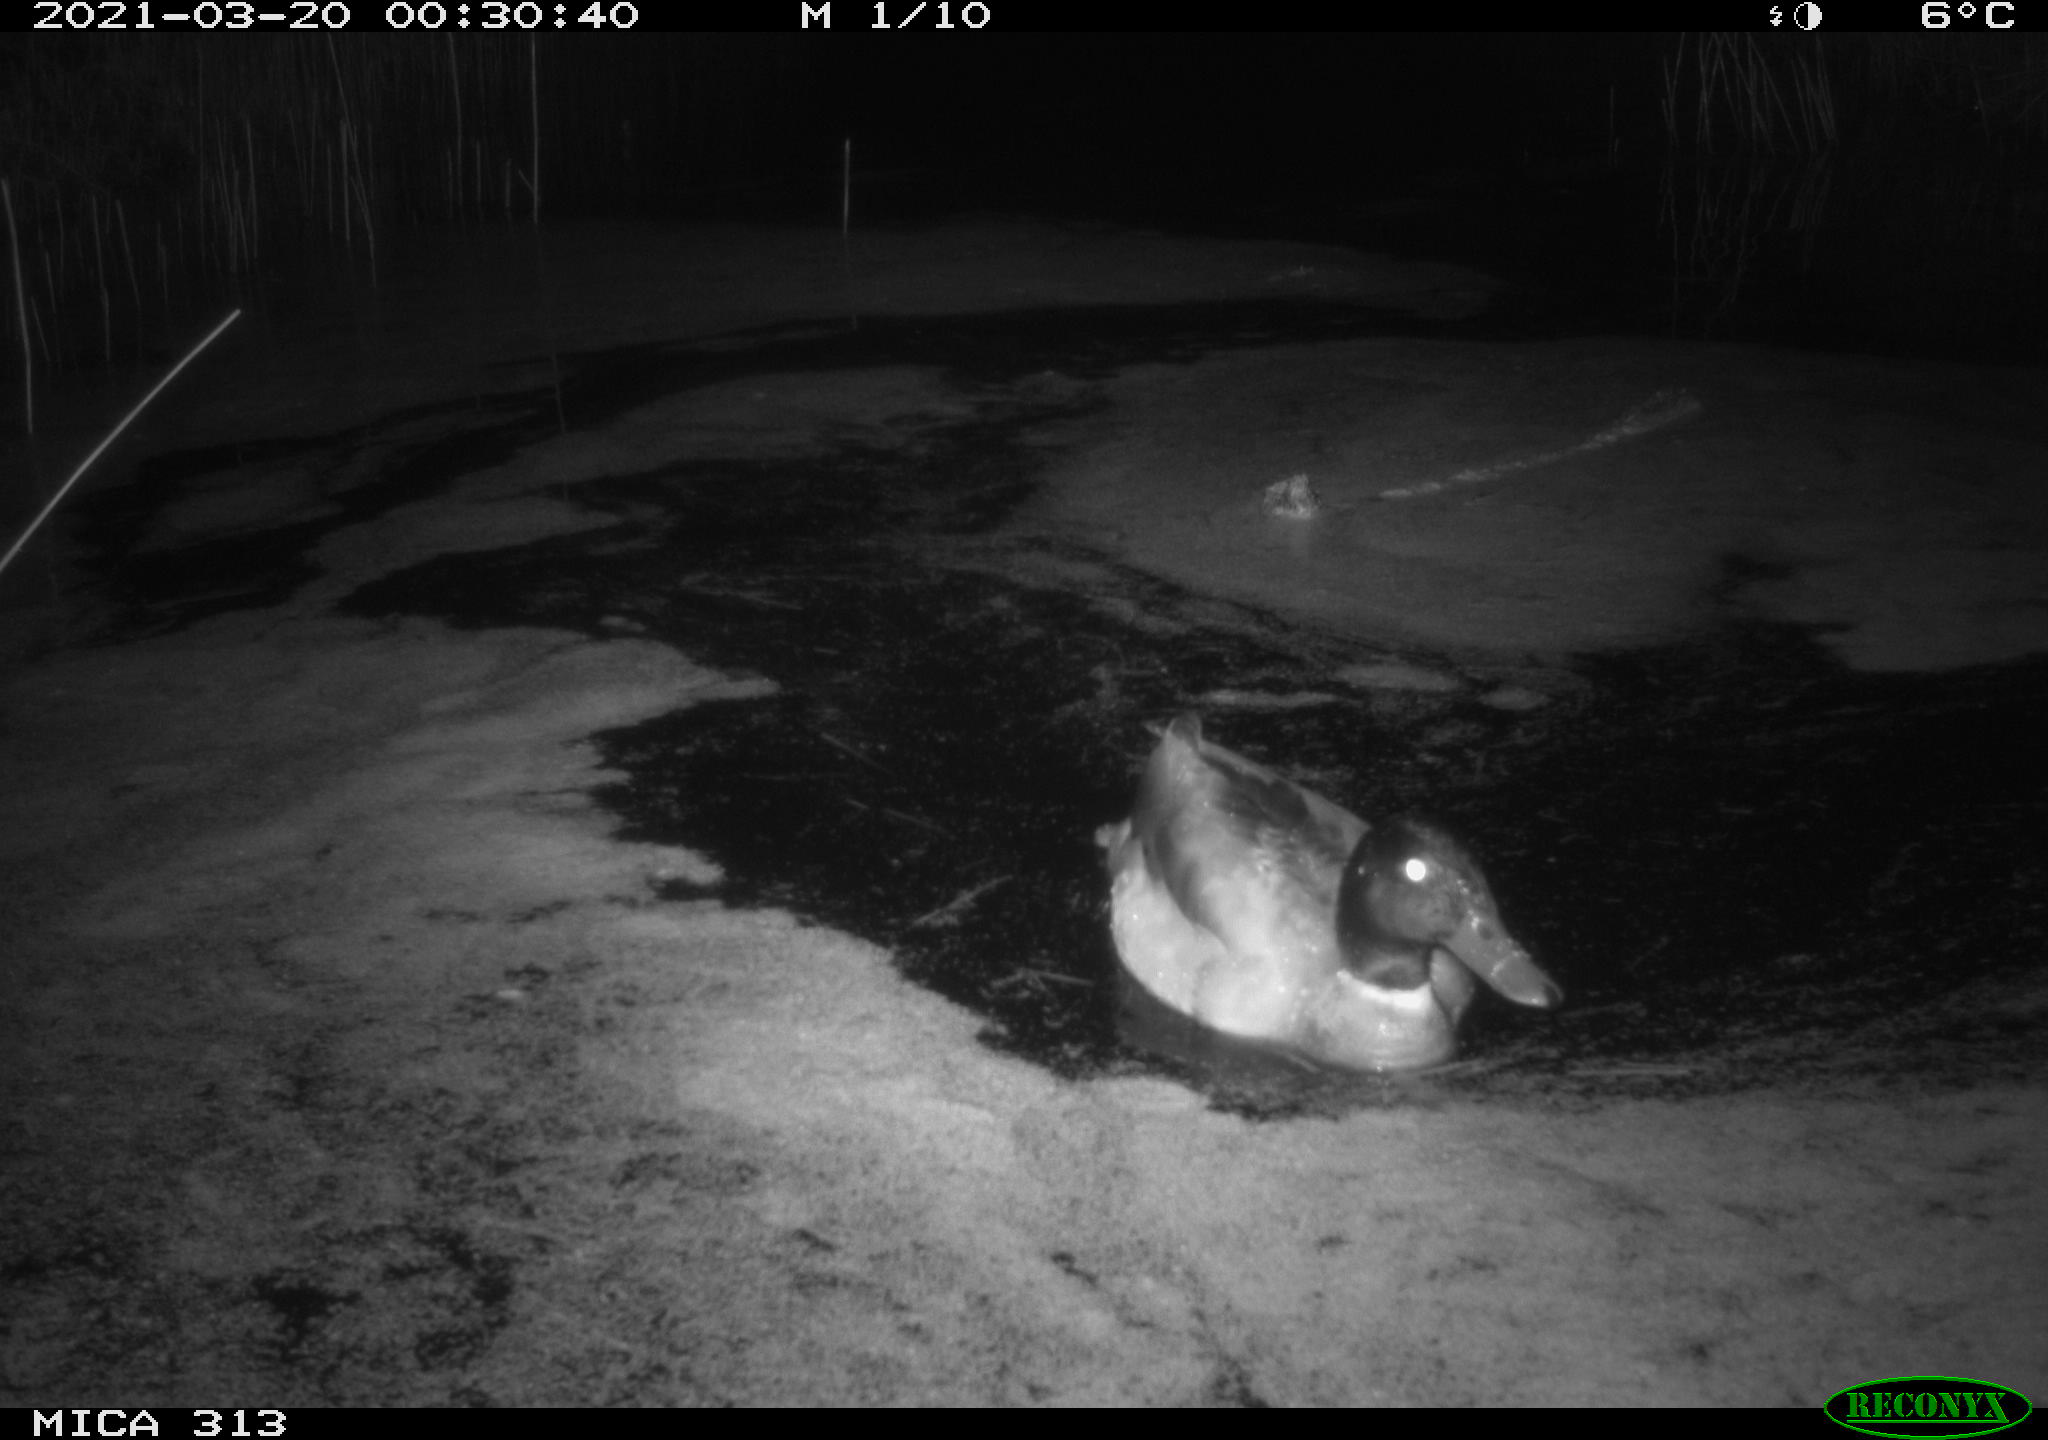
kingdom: Animalia
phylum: Chordata
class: Aves
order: Anseriformes
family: Anatidae
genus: Anas
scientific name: Anas platyrhynchos
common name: Mallard
